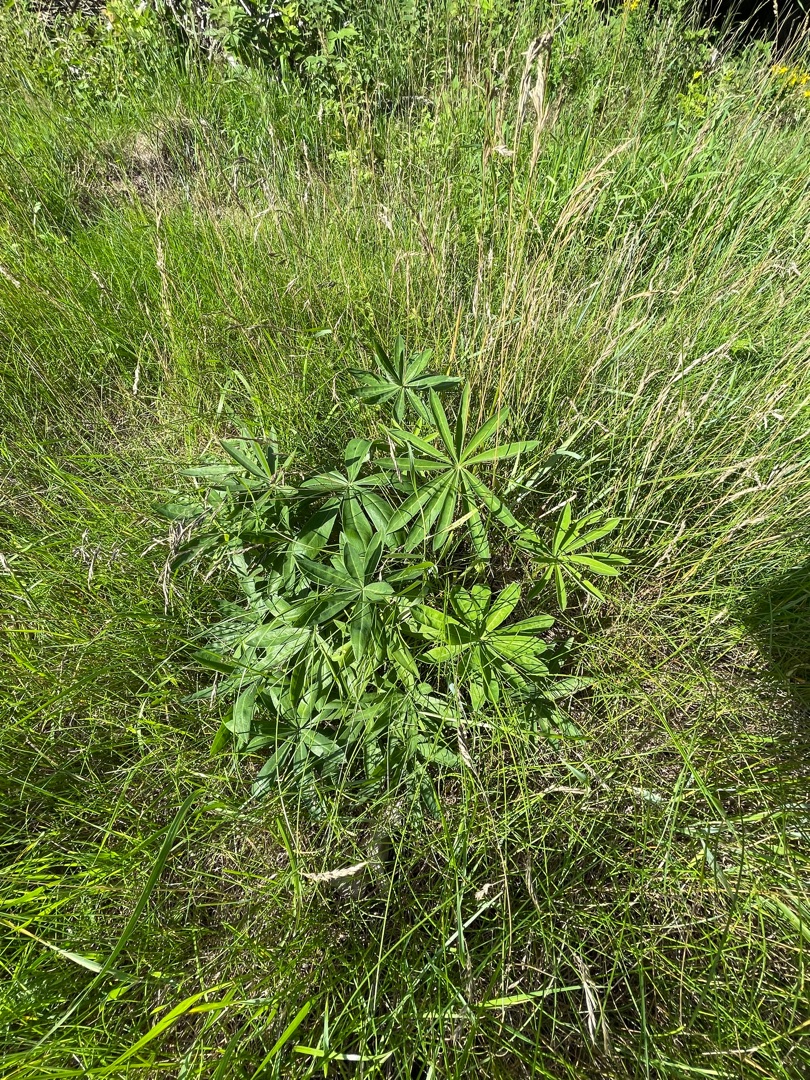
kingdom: Plantae
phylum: Tracheophyta
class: Magnoliopsida
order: Fabales
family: Fabaceae
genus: Lupinus
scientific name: Lupinus polyphyllus
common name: Mangebladet lupin
